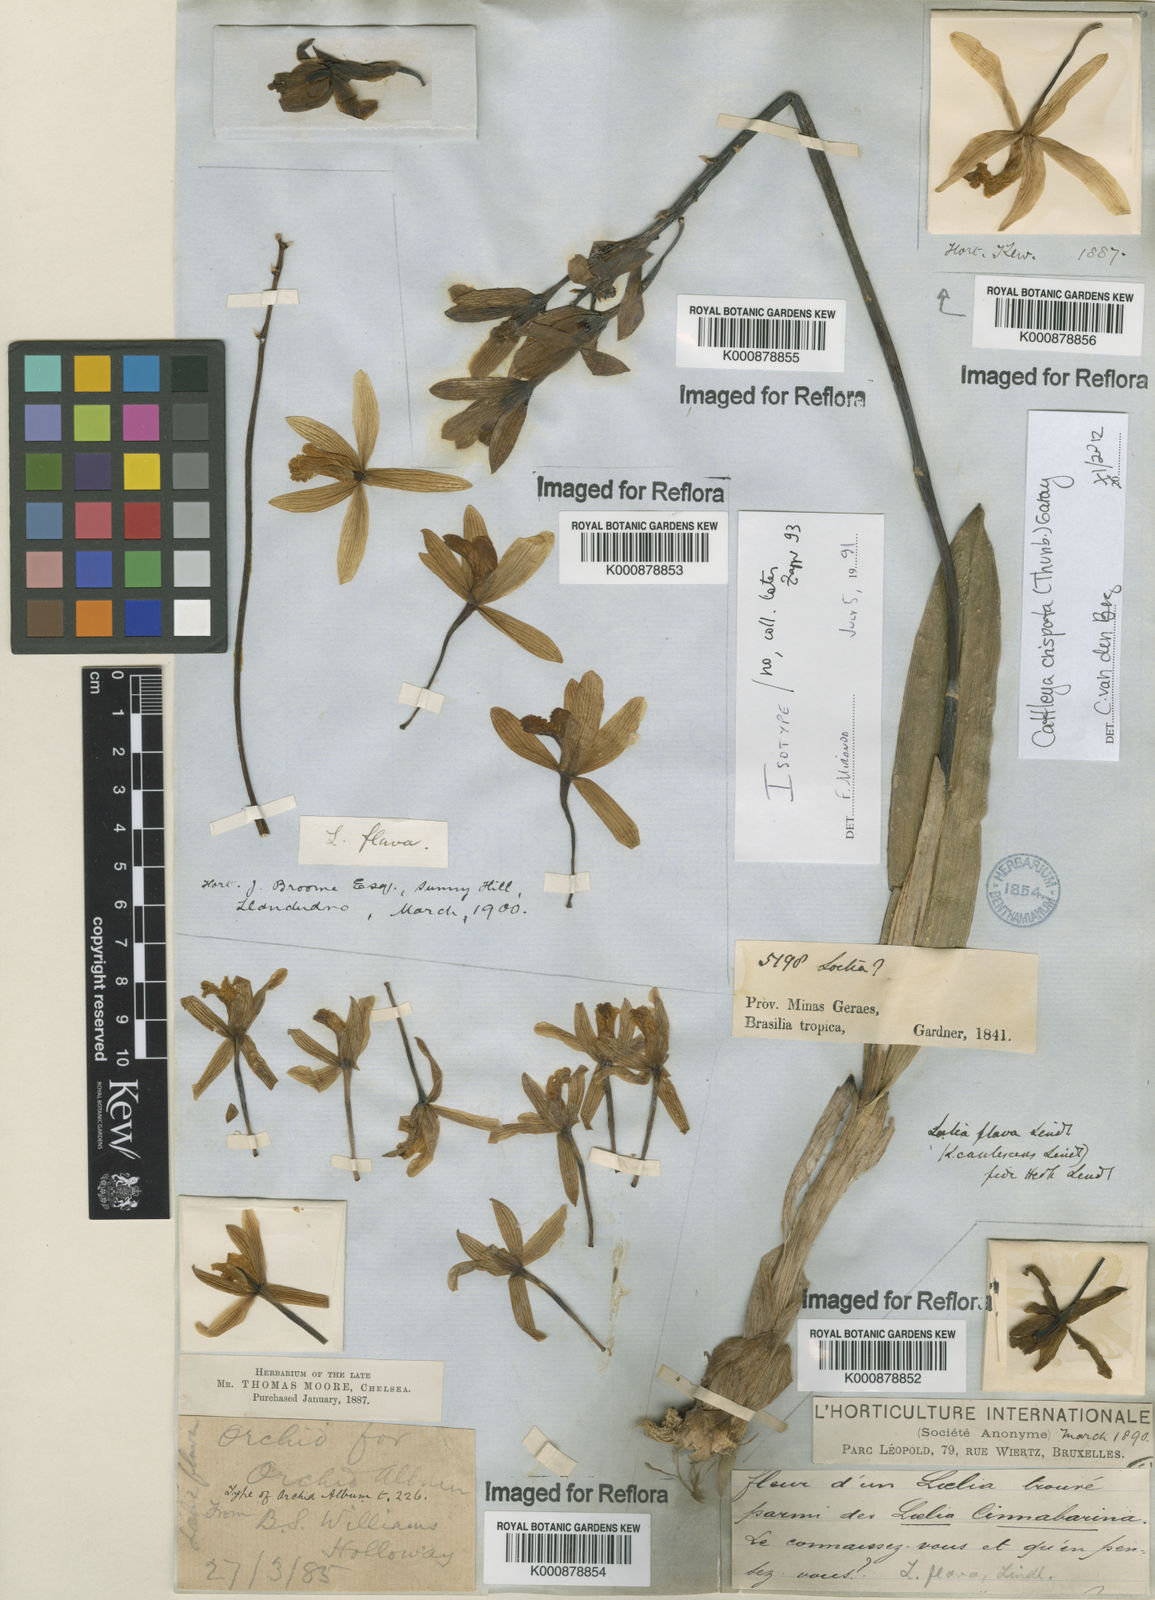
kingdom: Plantae
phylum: Tracheophyta
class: Liliopsida
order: Asparagales
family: Orchidaceae
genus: Cattleya
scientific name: Cattleya crispata
